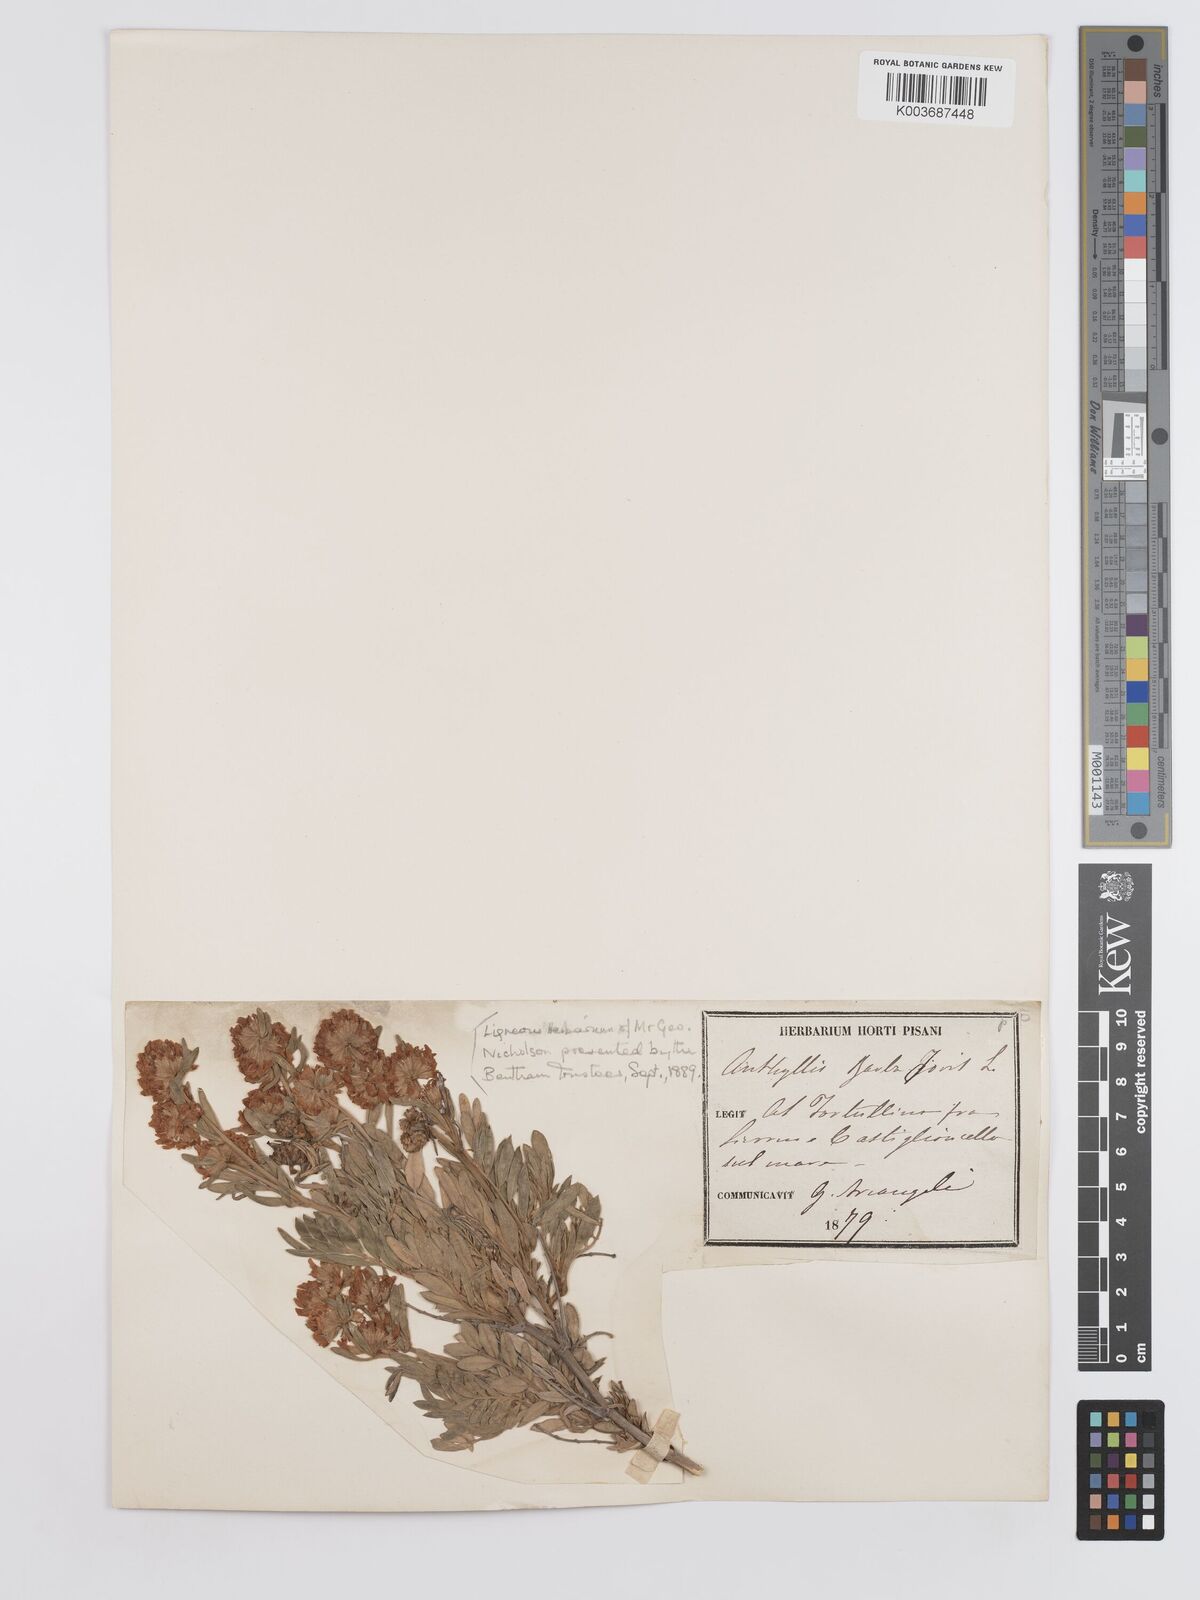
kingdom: Plantae
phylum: Tracheophyta
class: Magnoliopsida
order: Fabales
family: Fabaceae
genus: Anthyllis
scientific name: Anthyllis barba-jovis
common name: Jupiter's-beard
